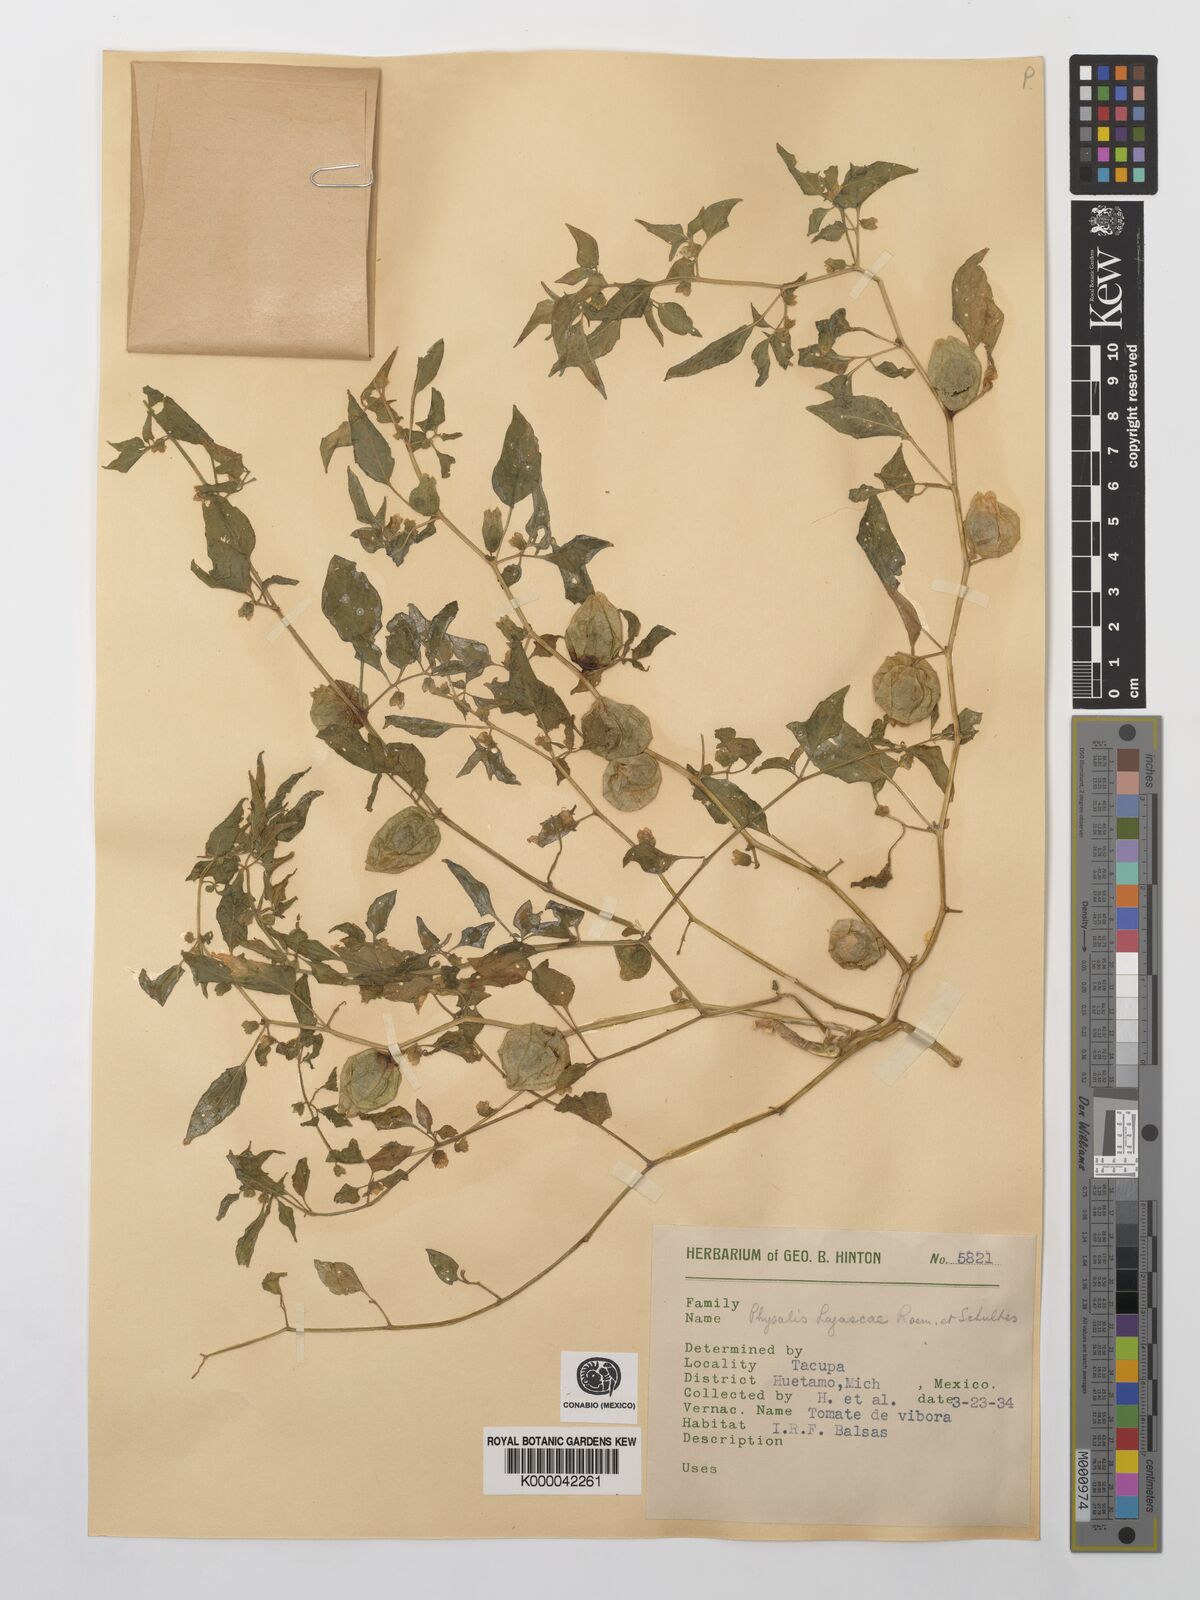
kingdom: Plantae
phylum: Tracheophyta
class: Magnoliopsida
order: Solanales
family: Solanaceae
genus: Physalis
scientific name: Physalis lagascae
